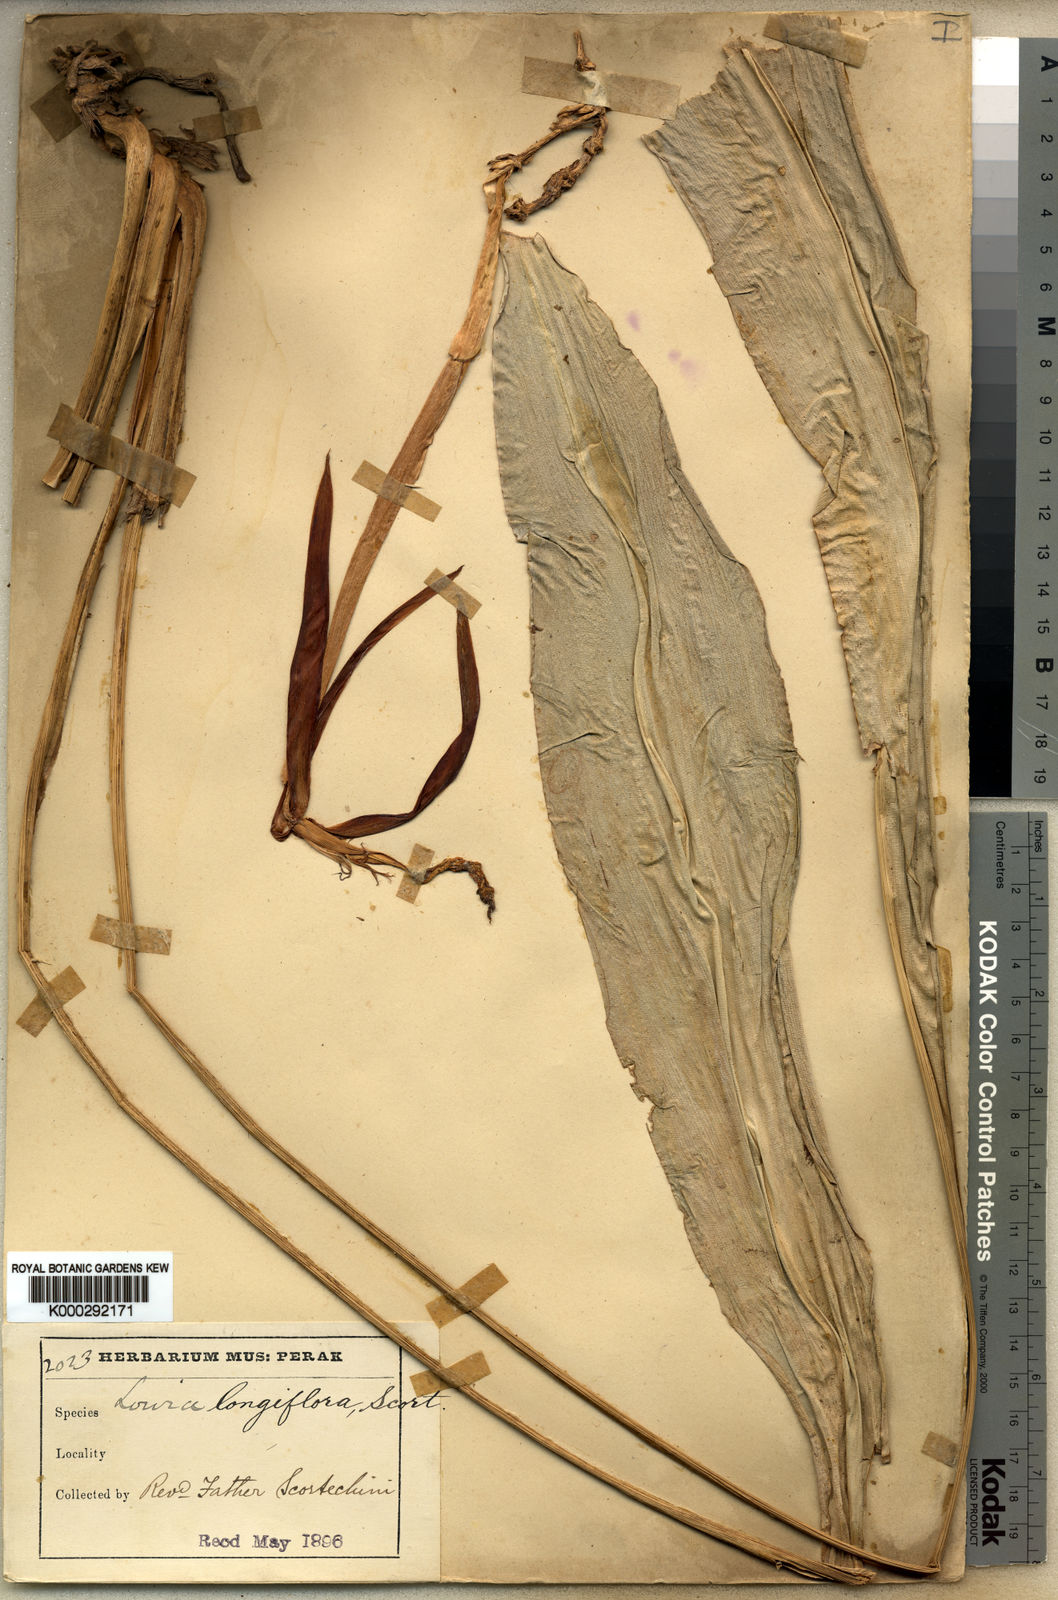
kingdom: Plantae
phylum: Tracheophyta
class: Liliopsida
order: Zingiberales
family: Lowiaceae
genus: Orchidantha
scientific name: Orchidantha longiflora
